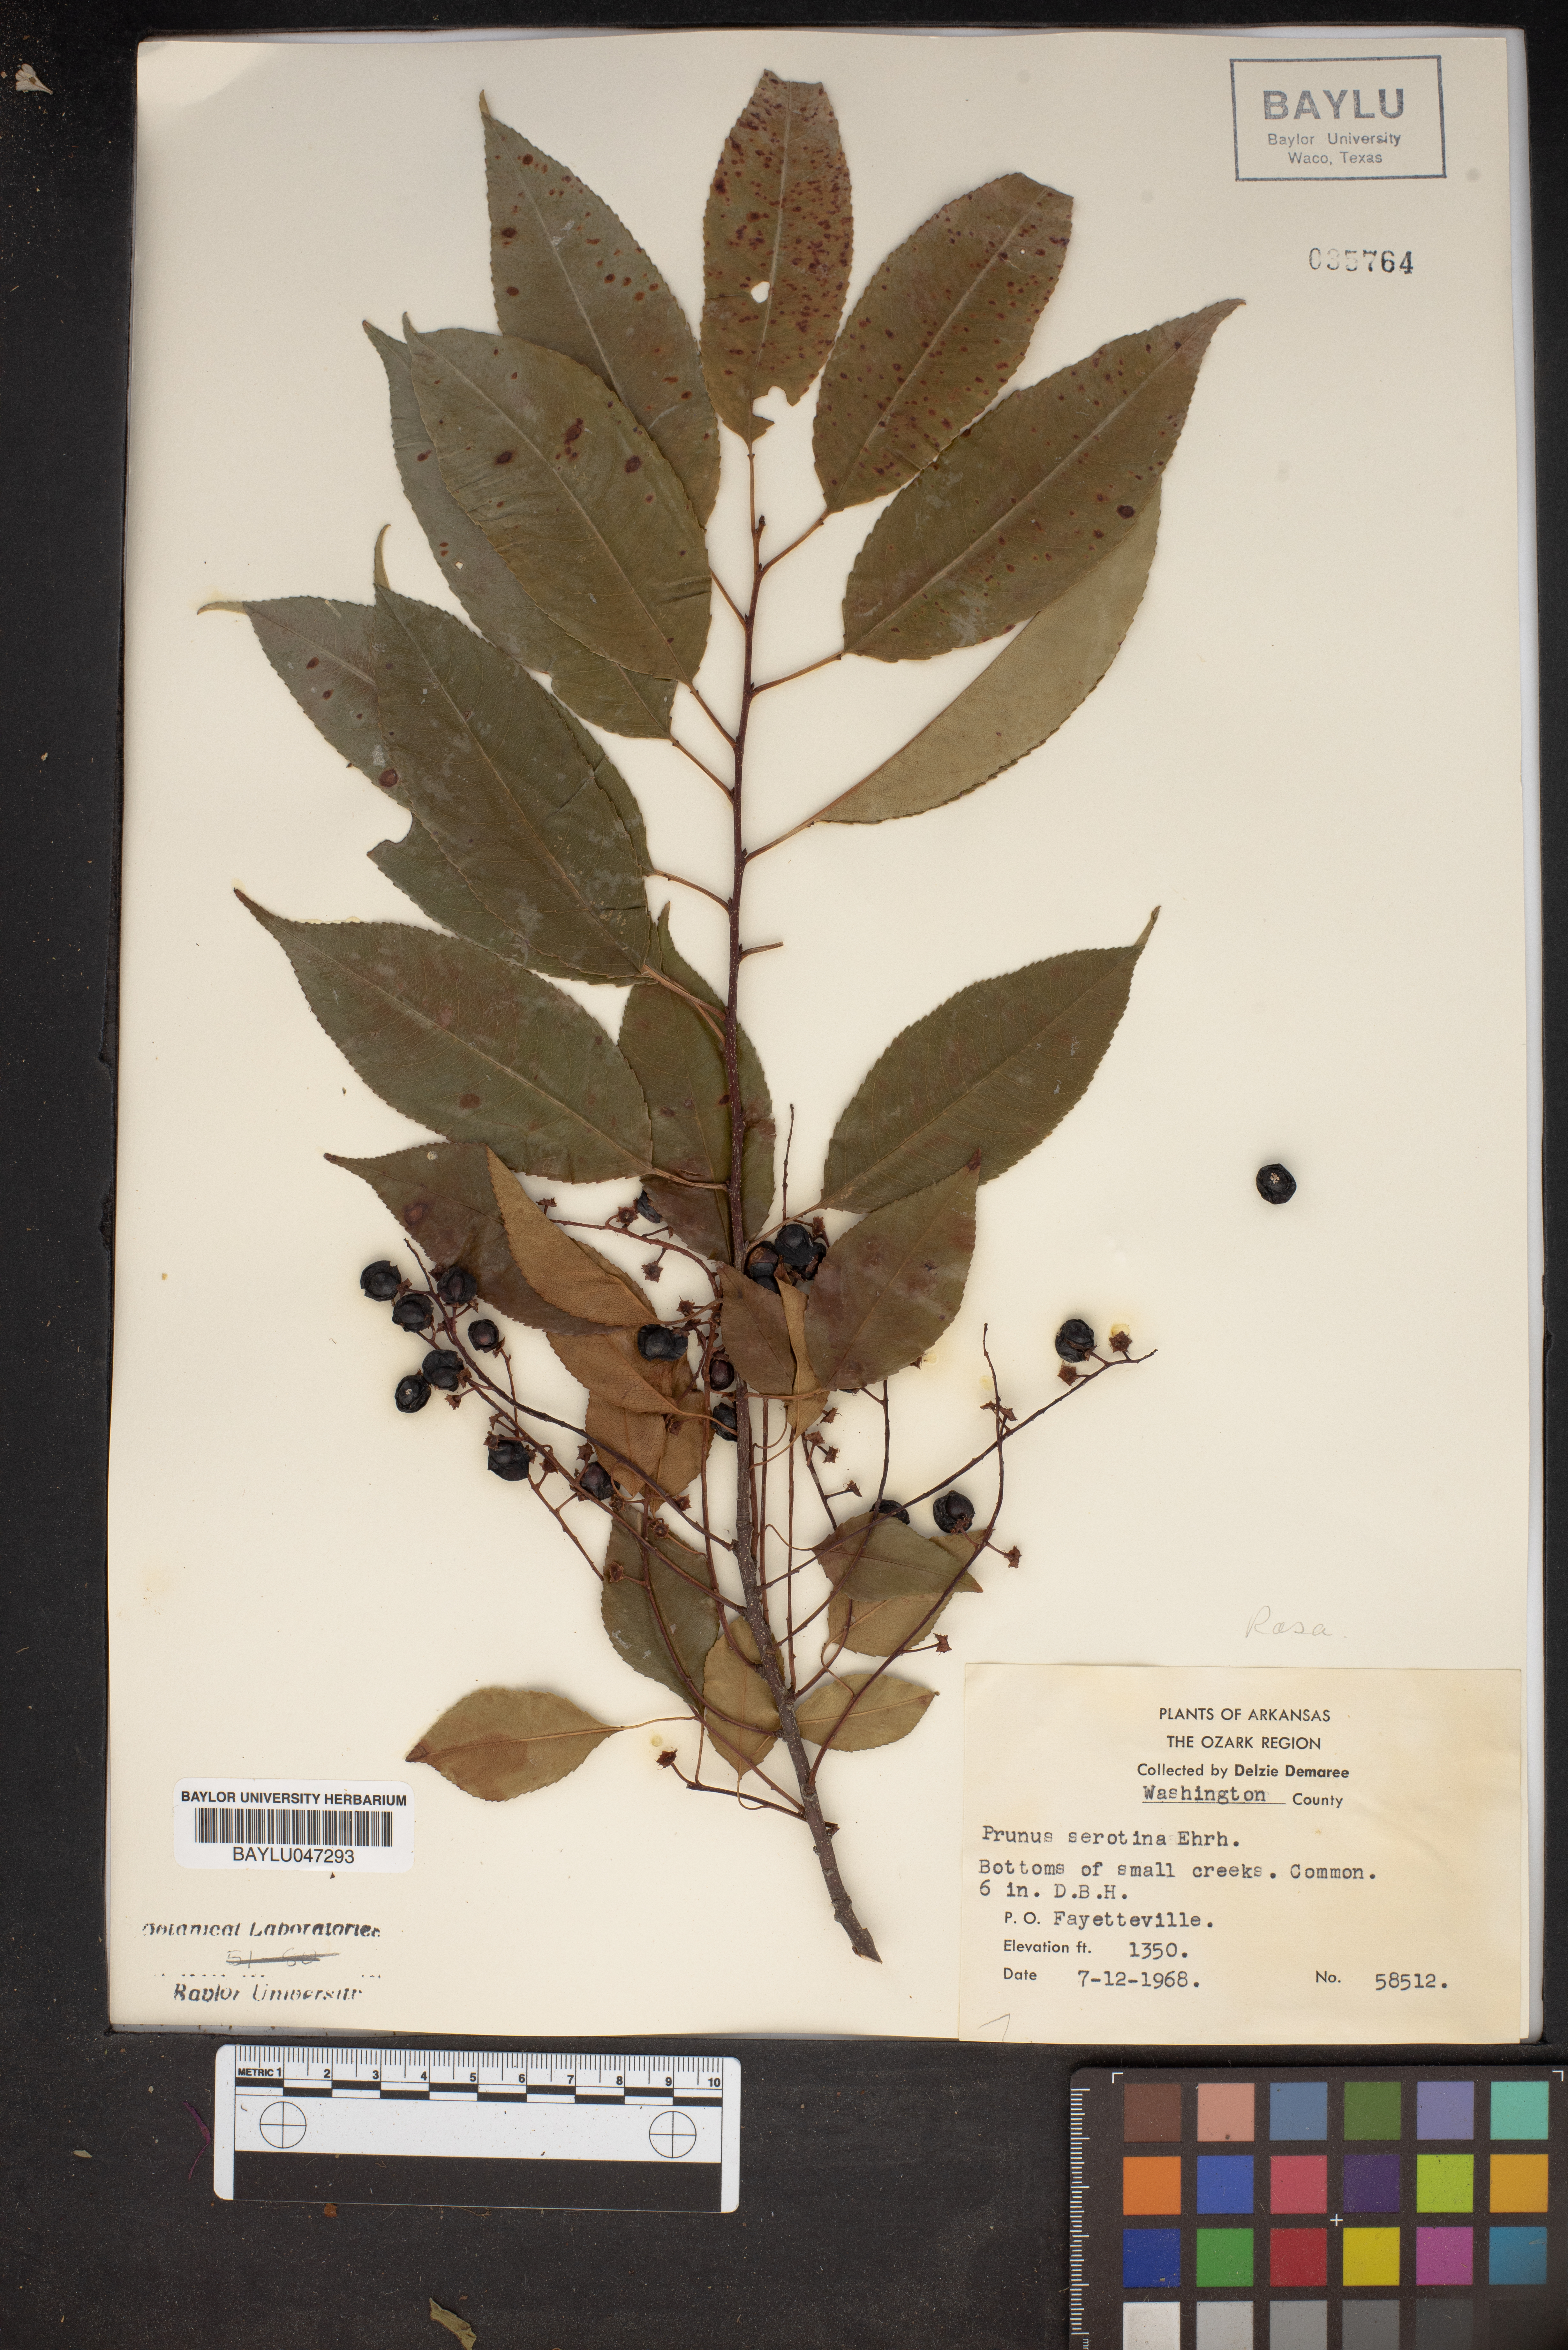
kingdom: Plantae
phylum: Tracheophyta
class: Magnoliopsida
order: Rosales
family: Rosaceae
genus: Prunus
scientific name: Prunus serotina
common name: Black cherry
